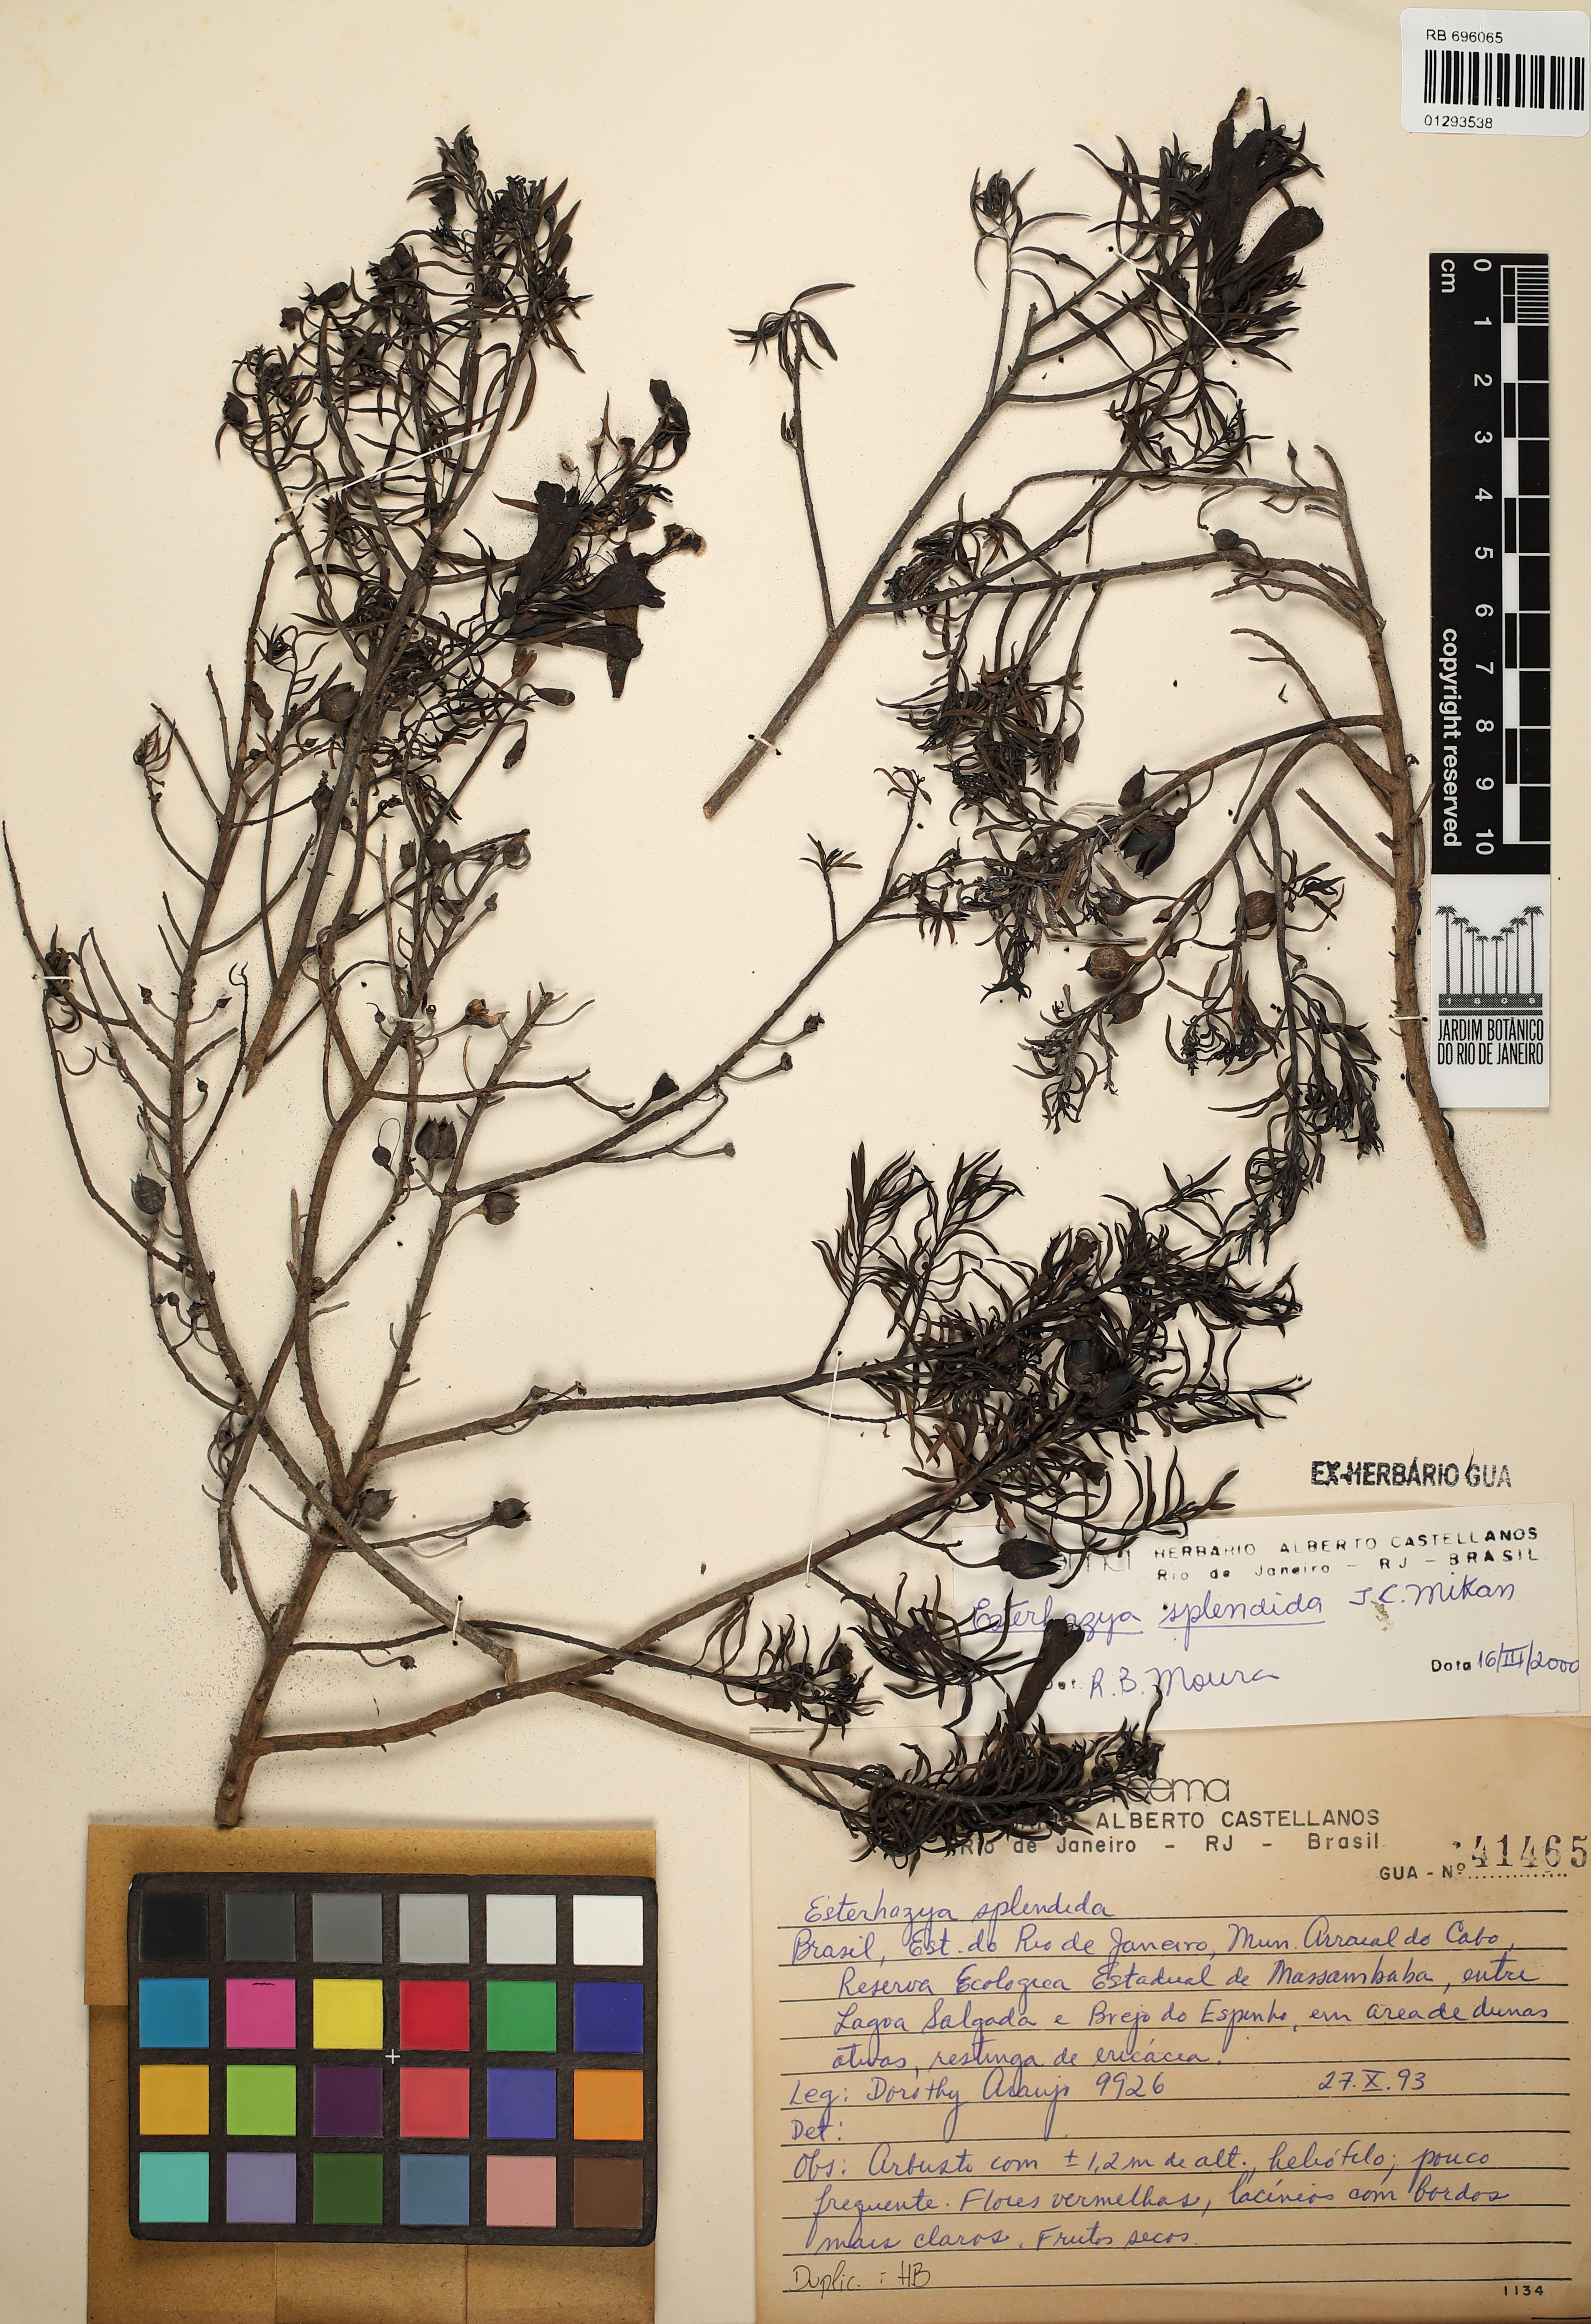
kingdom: Plantae
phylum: Tracheophyta
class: Magnoliopsida
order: Lamiales
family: Orobanchaceae
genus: Esterhazya
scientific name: Esterhazya splendida
